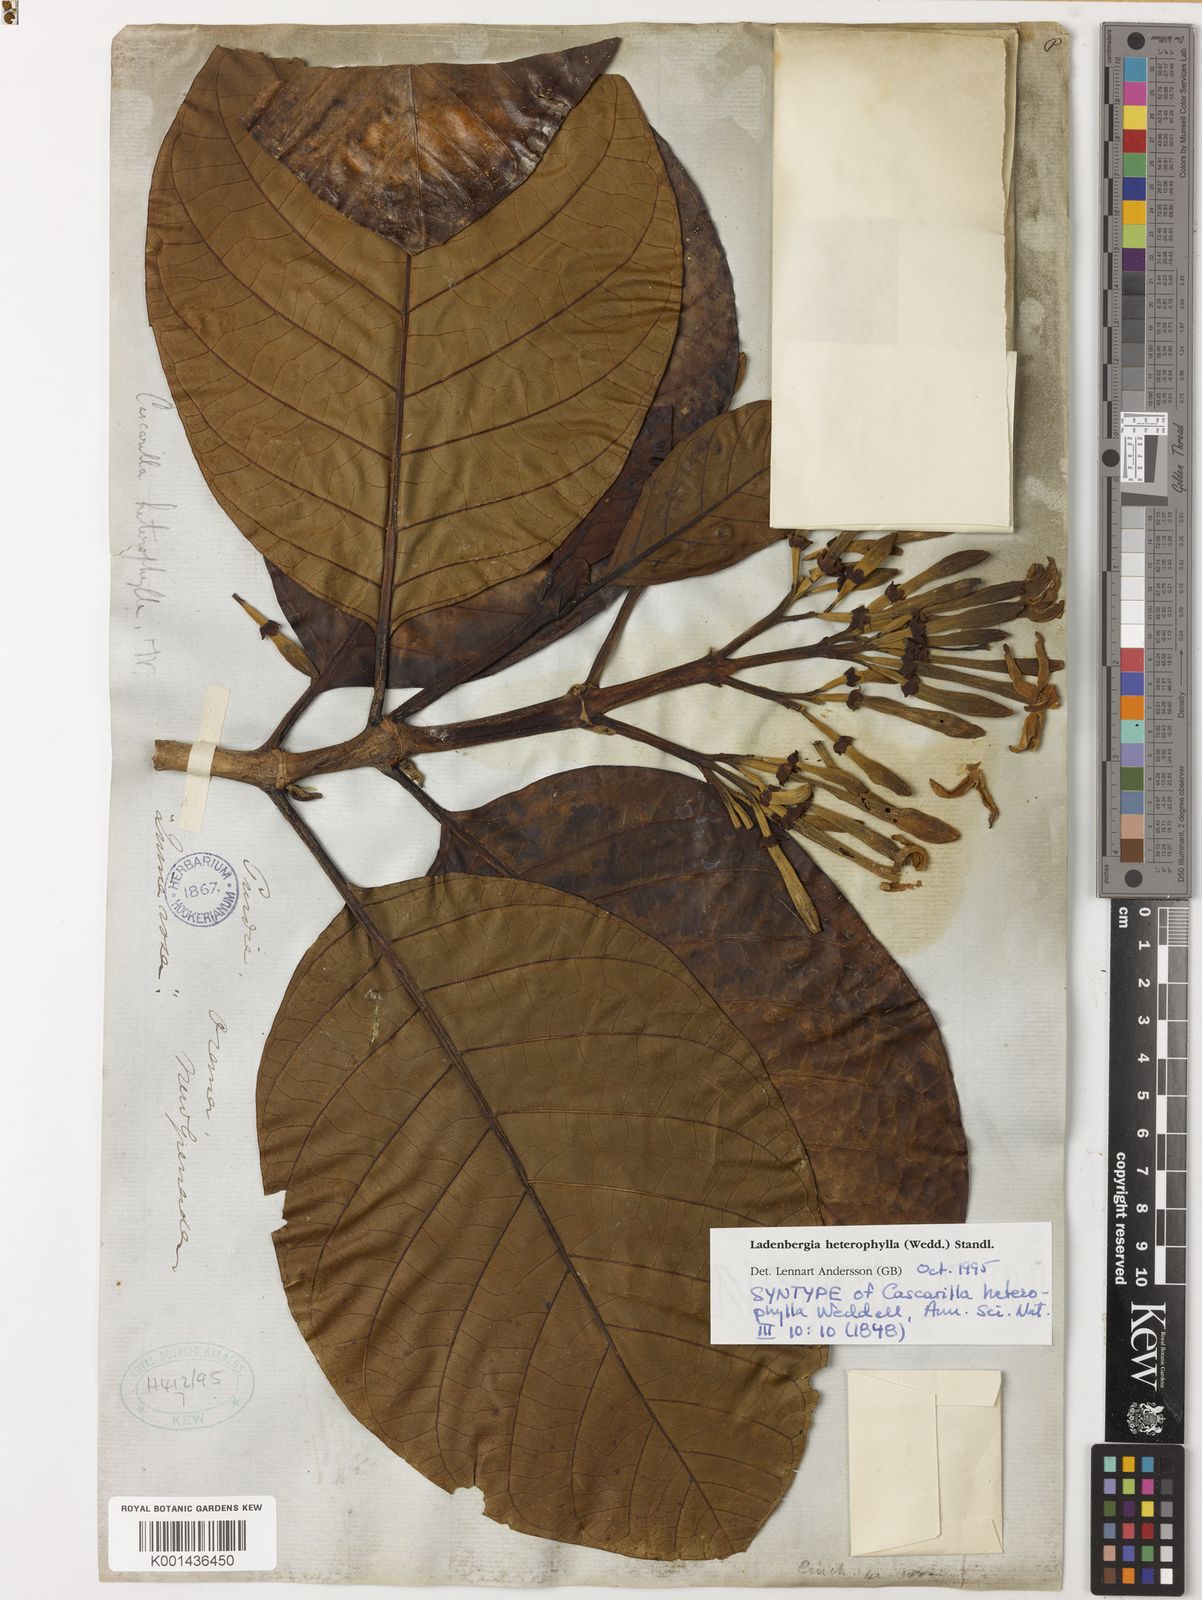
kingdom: Plantae
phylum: Tracheophyta
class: Magnoliopsida
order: Gentianales
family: Rubiaceae
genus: Ladenbergia
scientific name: Ladenbergia heterophylla
